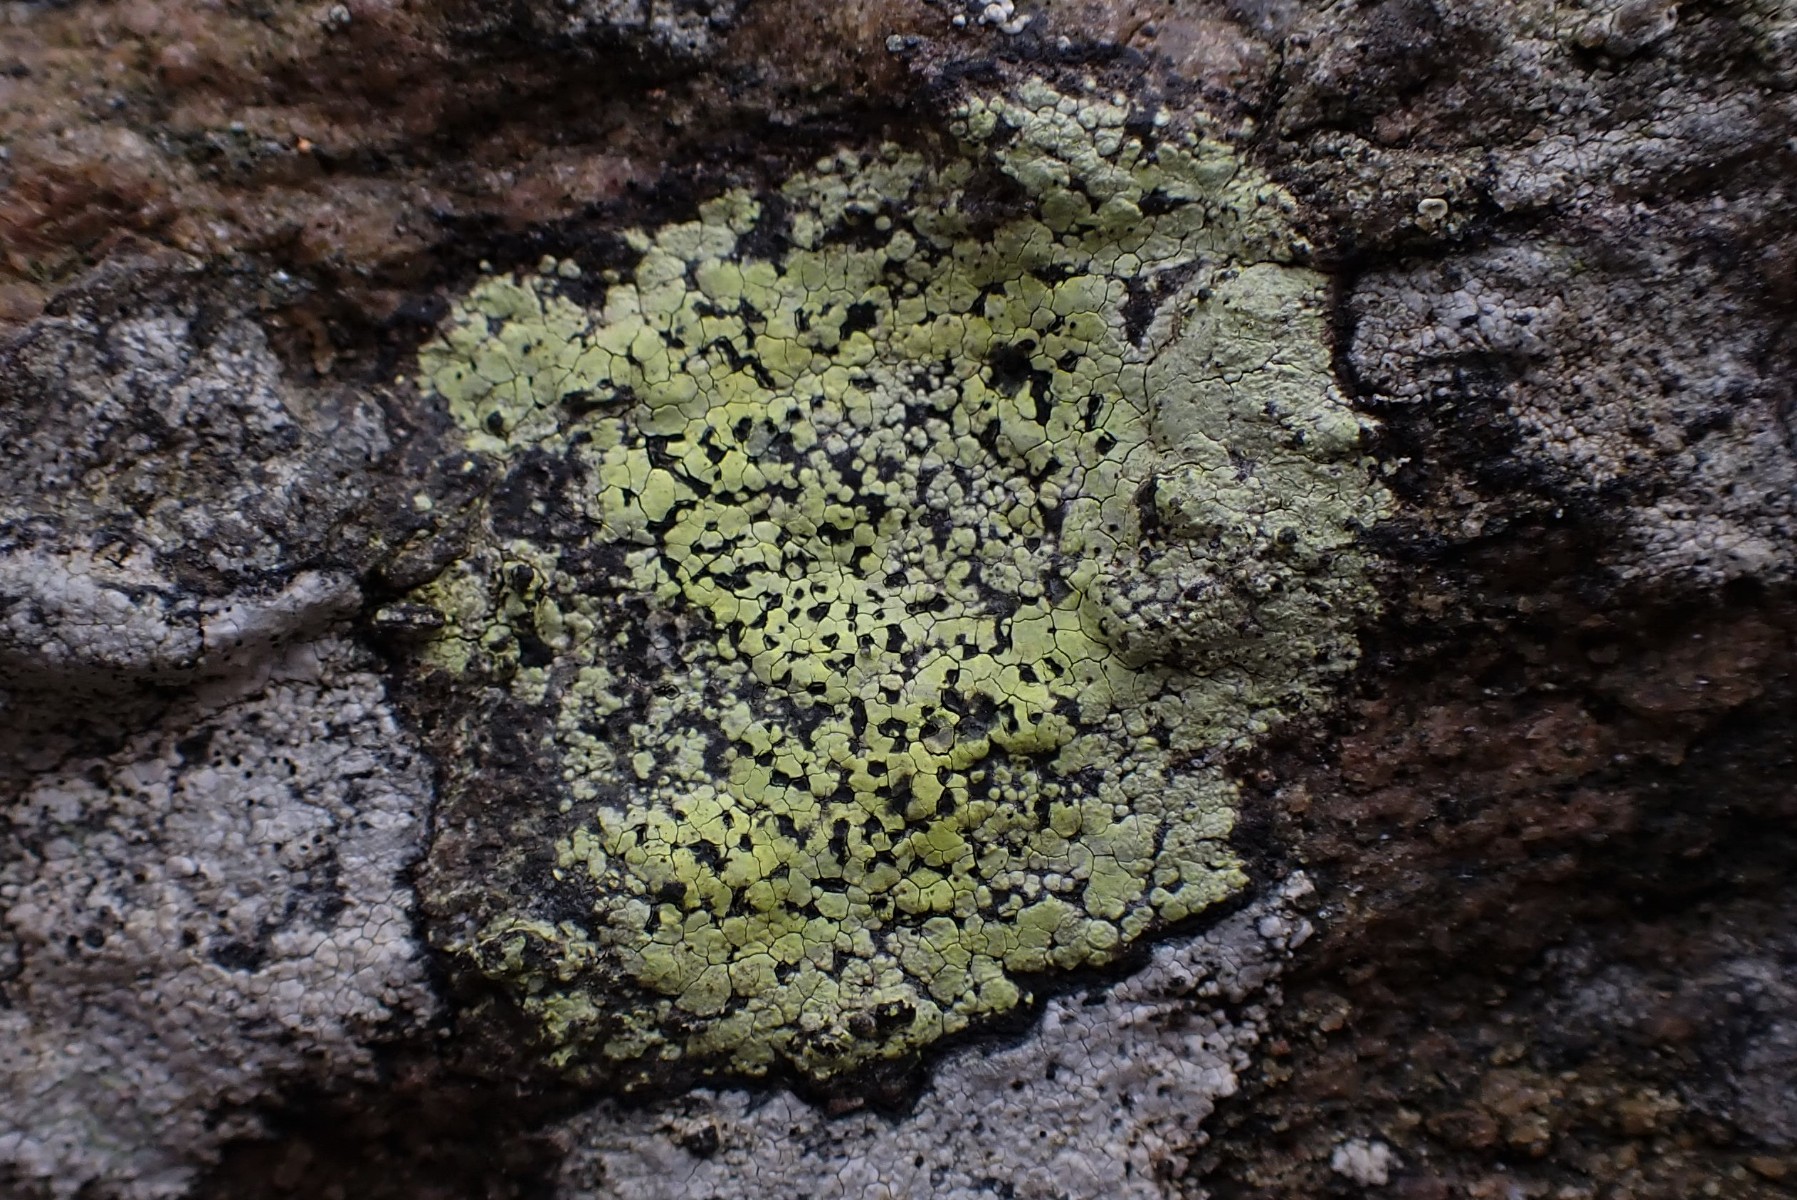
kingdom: Fungi
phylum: Ascomycota
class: Lecanoromycetes
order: Rhizocarpales
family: Rhizocarpaceae
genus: Rhizocarpon
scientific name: Rhizocarpon geographicum
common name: gulgrøn landkortlav
